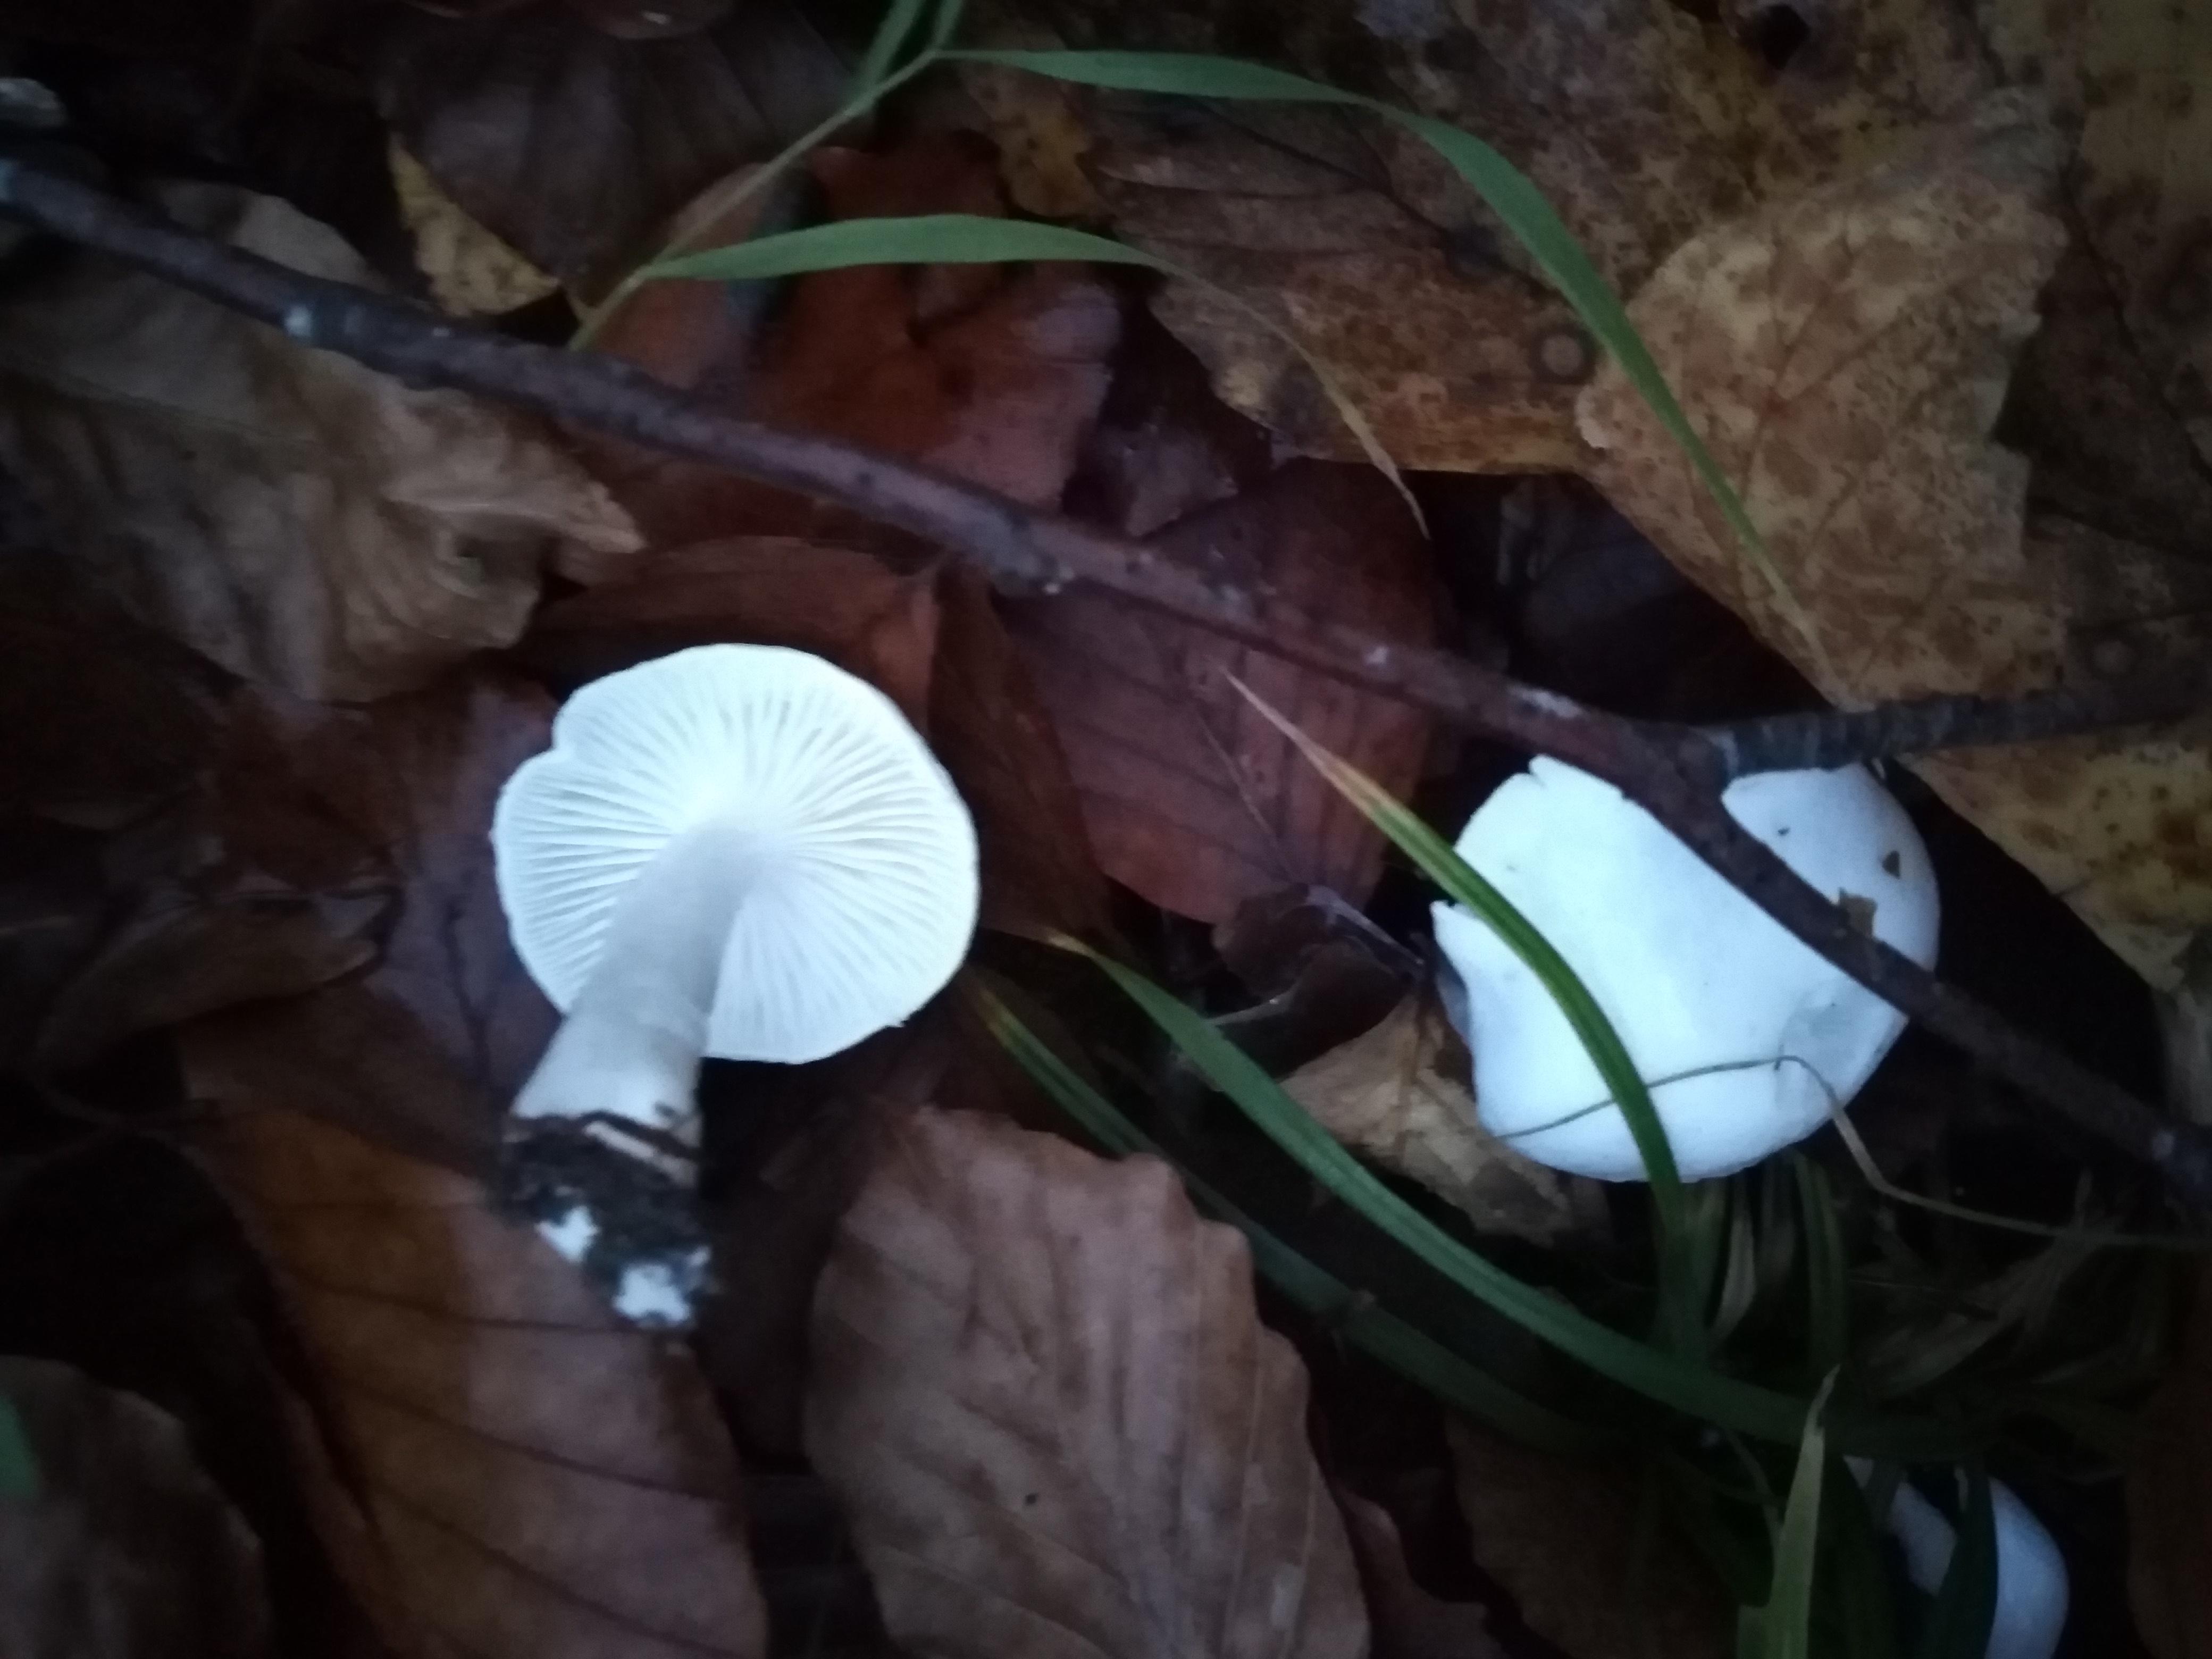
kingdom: Fungi
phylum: Basidiomycota
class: Agaricomycetes
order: Agaricales
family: Hygrophoraceae
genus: Hygrophorus
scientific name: Hygrophorus
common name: sneglehat
